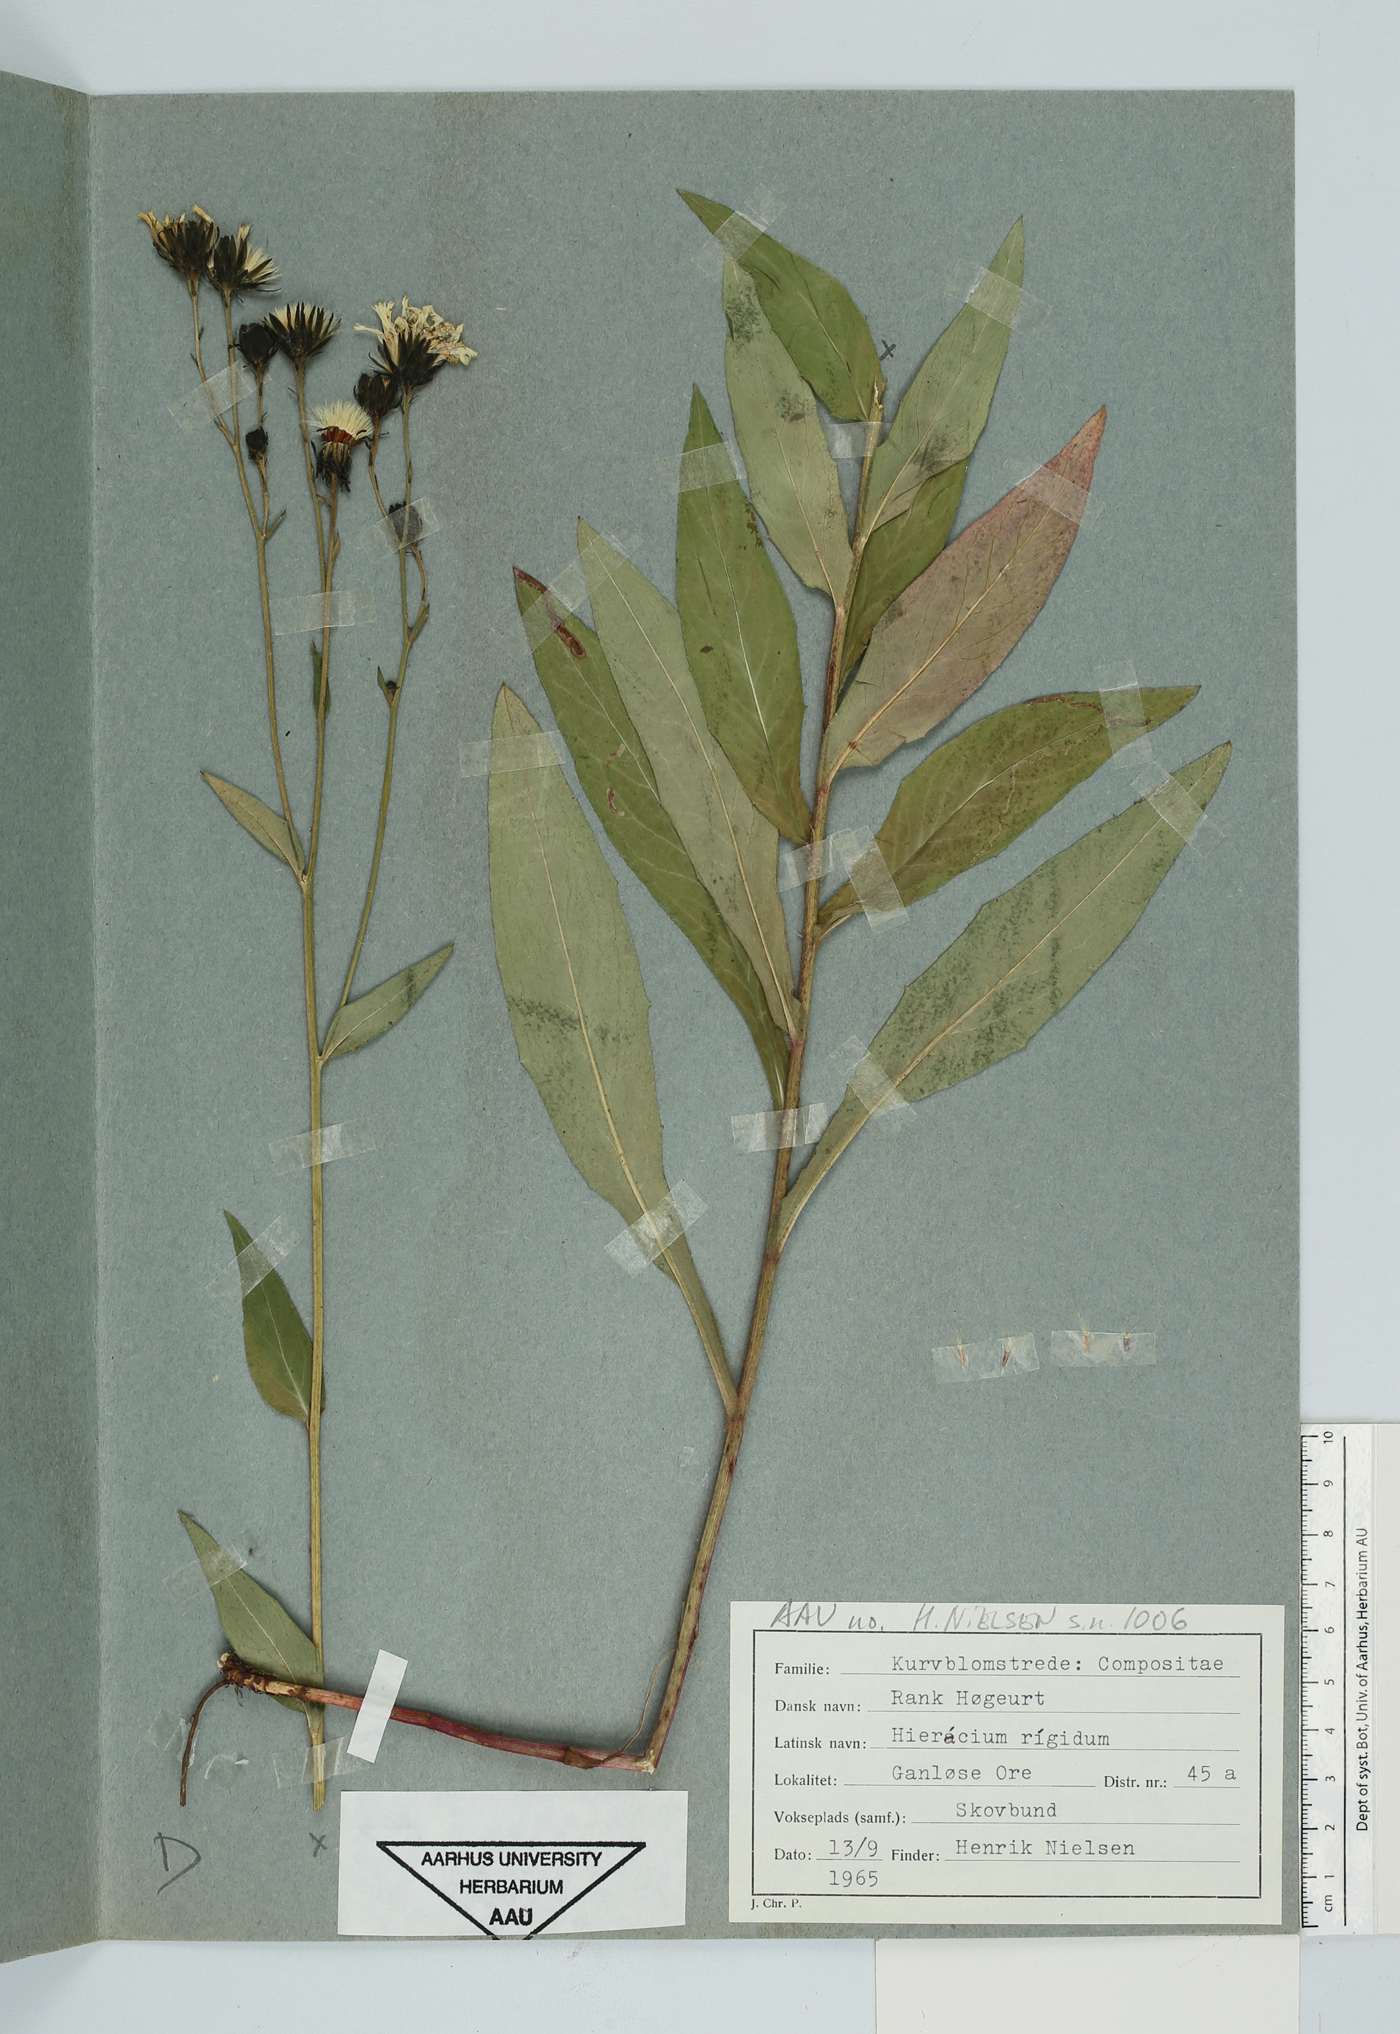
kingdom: Plantae
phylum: Tracheophyta
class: Magnoliopsida
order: Asterales
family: Asteraceae
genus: Hieracium
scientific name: Hieracium laevigatum
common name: Smooth hawkweed
